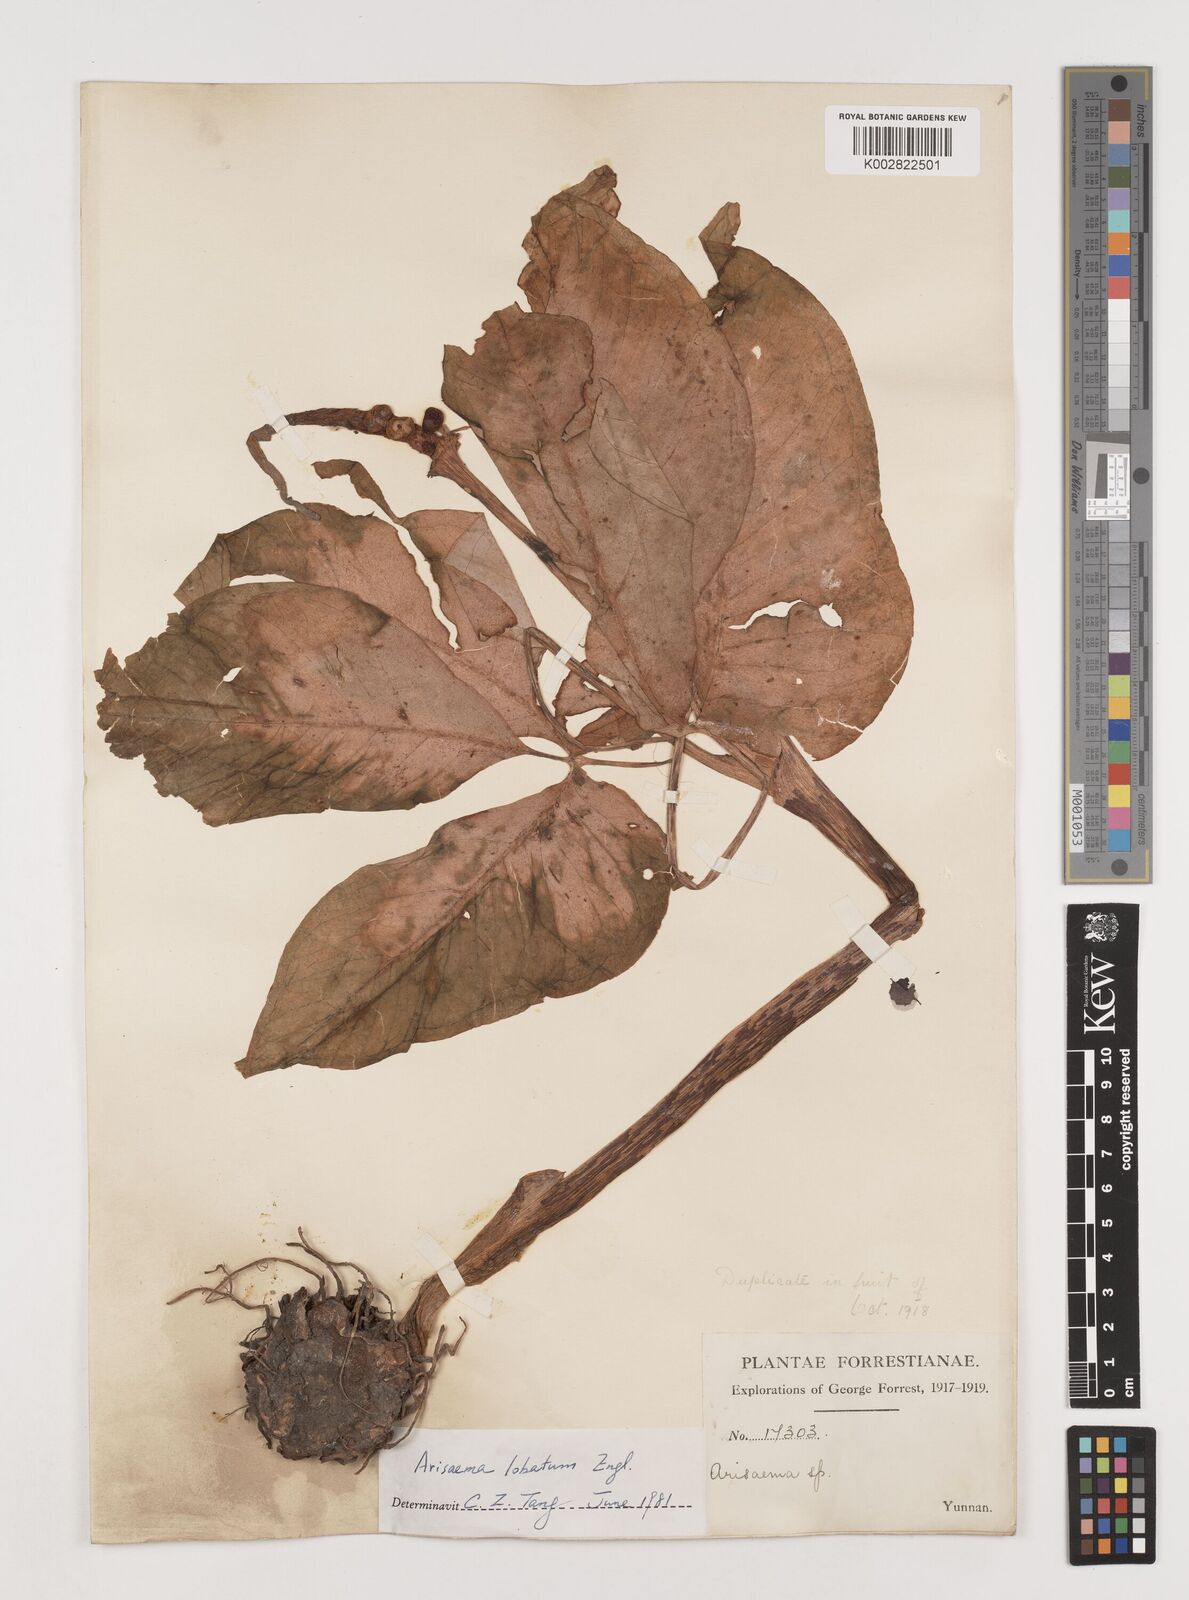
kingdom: Plantae
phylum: Tracheophyta
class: Liliopsida
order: Alismatales
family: Araceae
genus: Arisaema
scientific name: Arisaema lobatum
